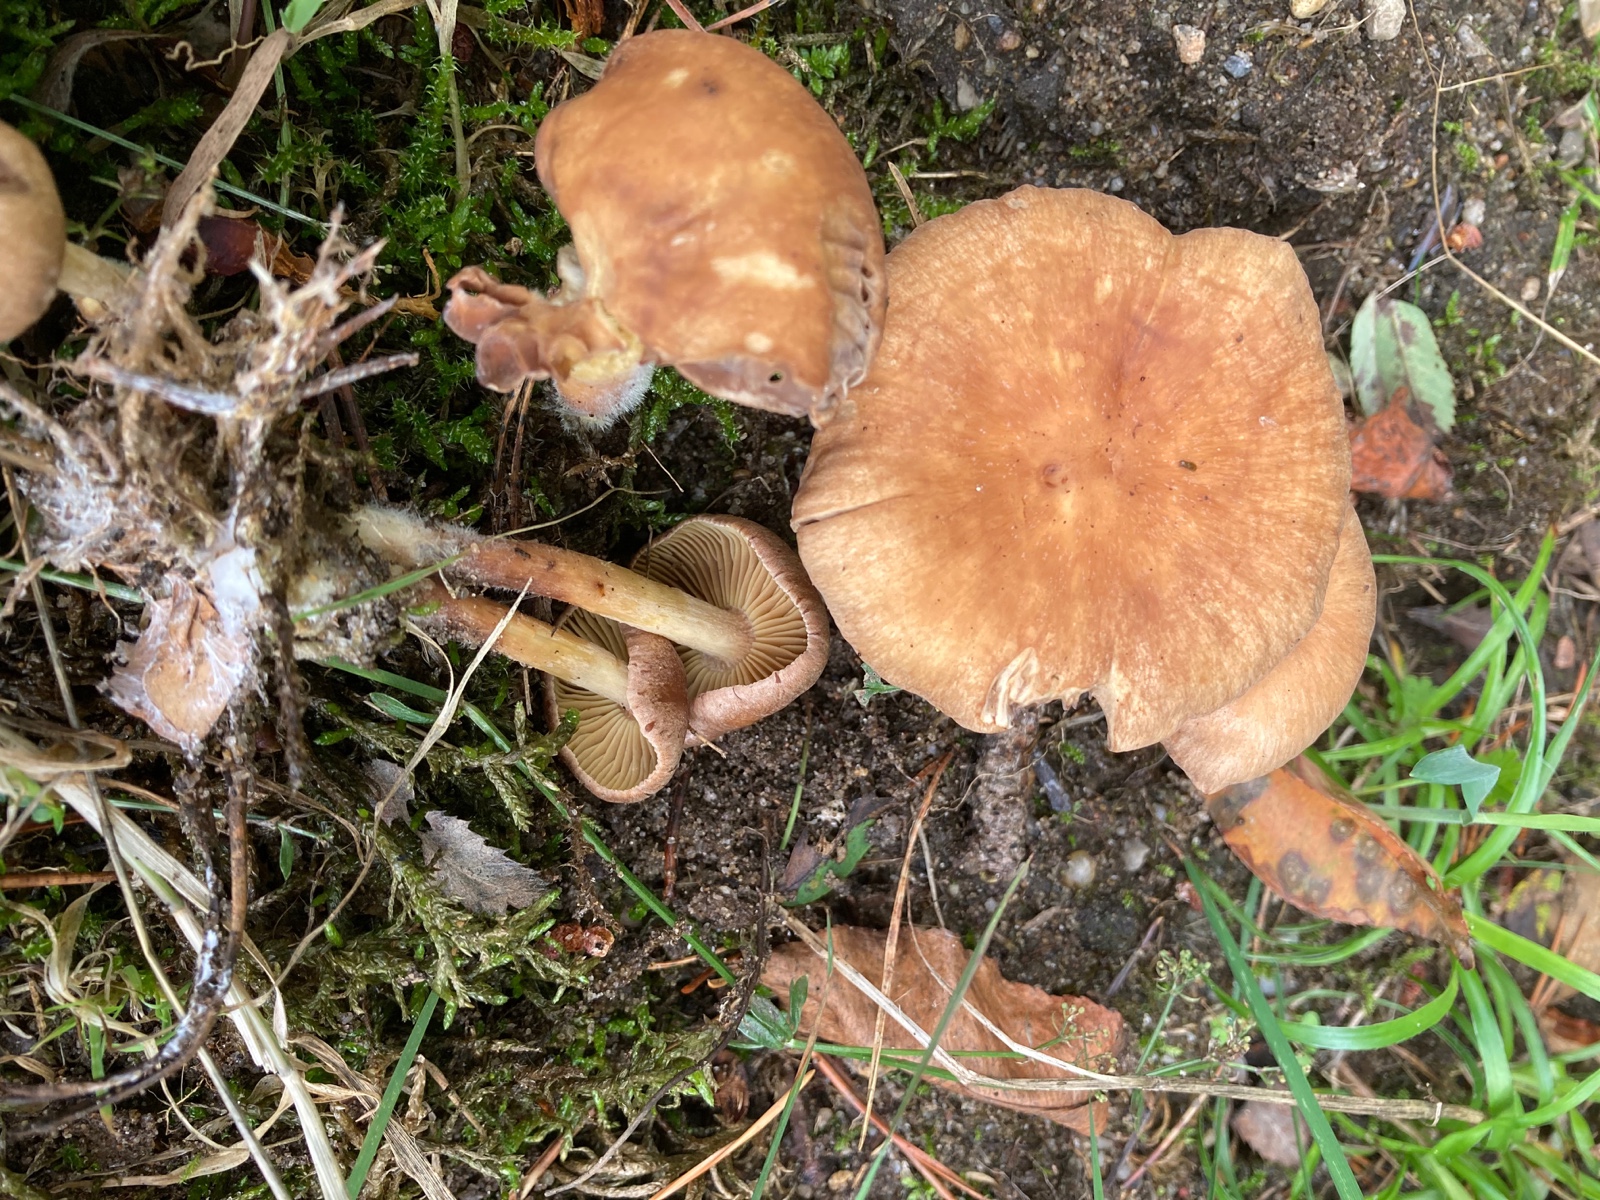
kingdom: Fungi
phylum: Basidiomycota
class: Agaricomycetes
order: Agaricales
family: Omphalotaceae
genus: Collybiopsis
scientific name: Collybiopsis peronata
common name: bestøvlet fladhat
